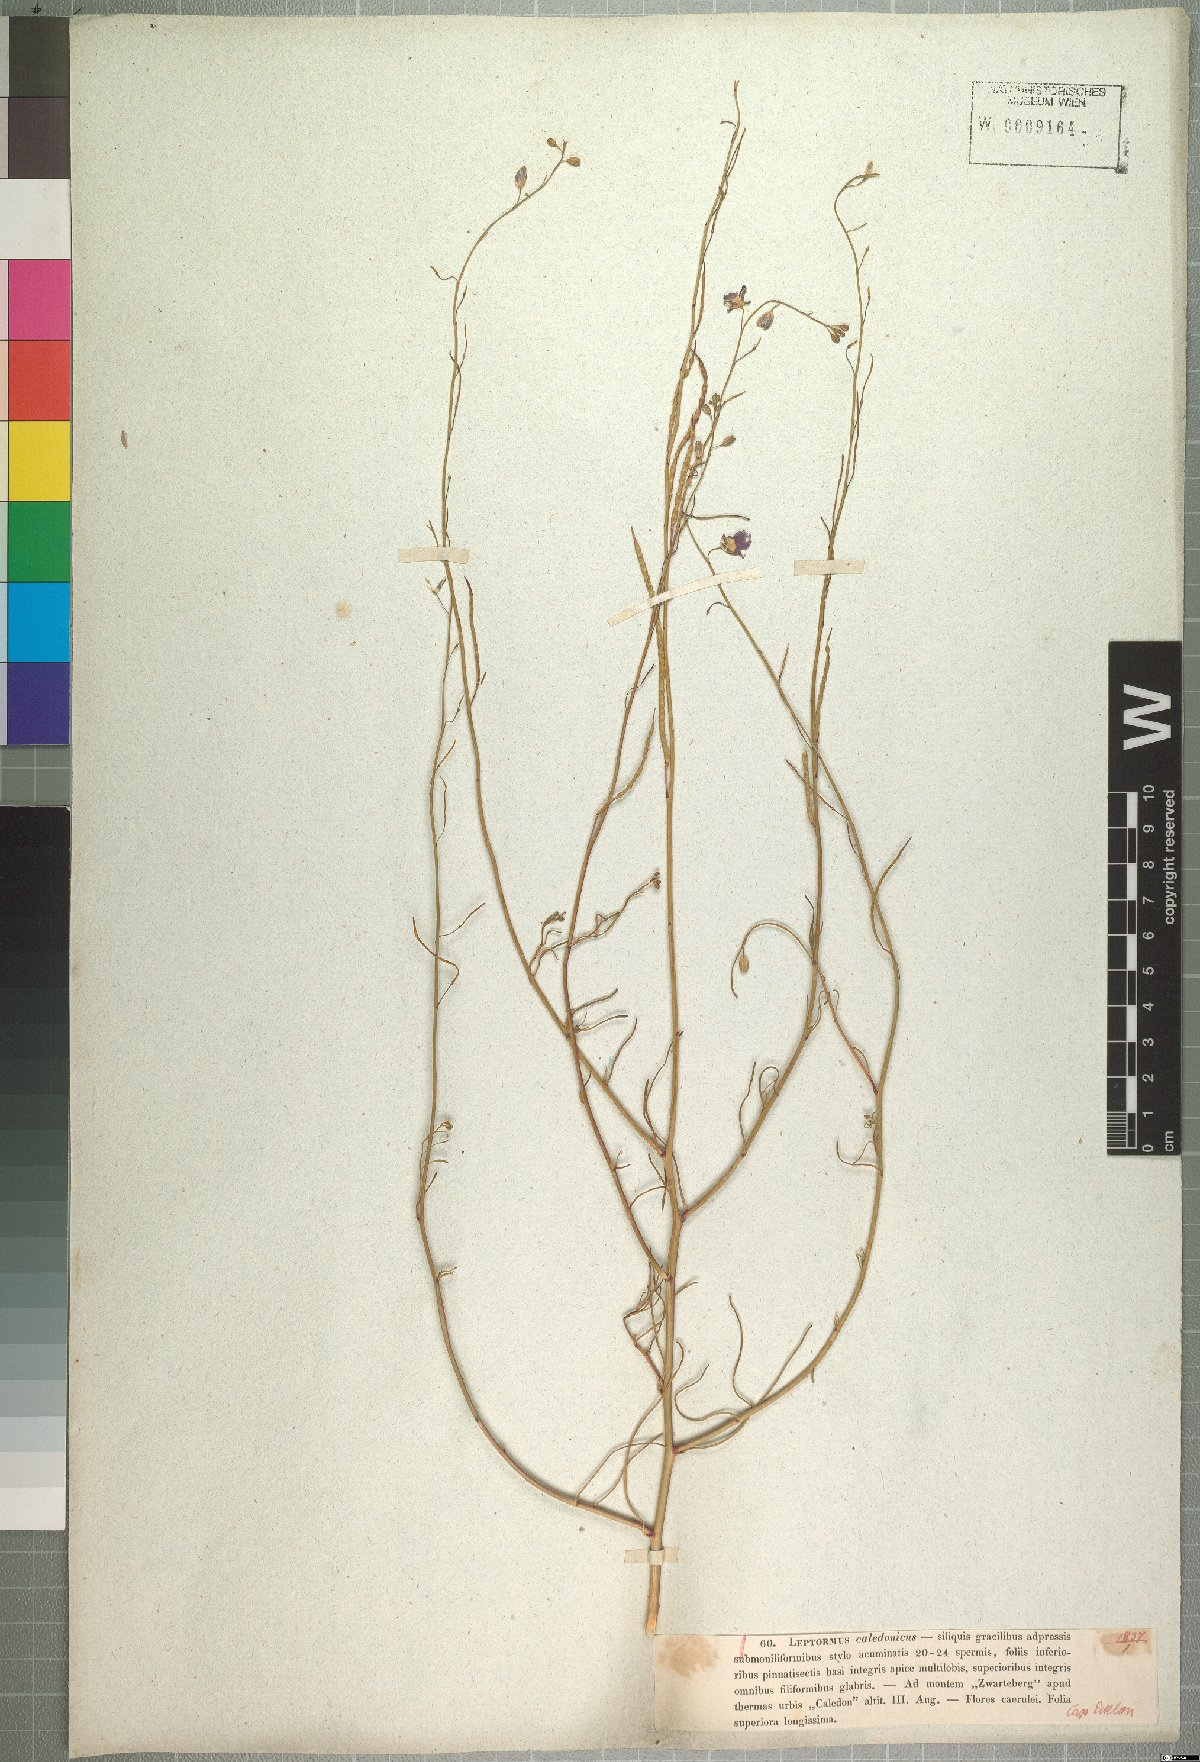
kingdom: Plantae
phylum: Tracheophyta
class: Magnoliopsida
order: Brassicales
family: Brassicaceae
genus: Heliophila
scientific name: Heliophila coronopifolia
